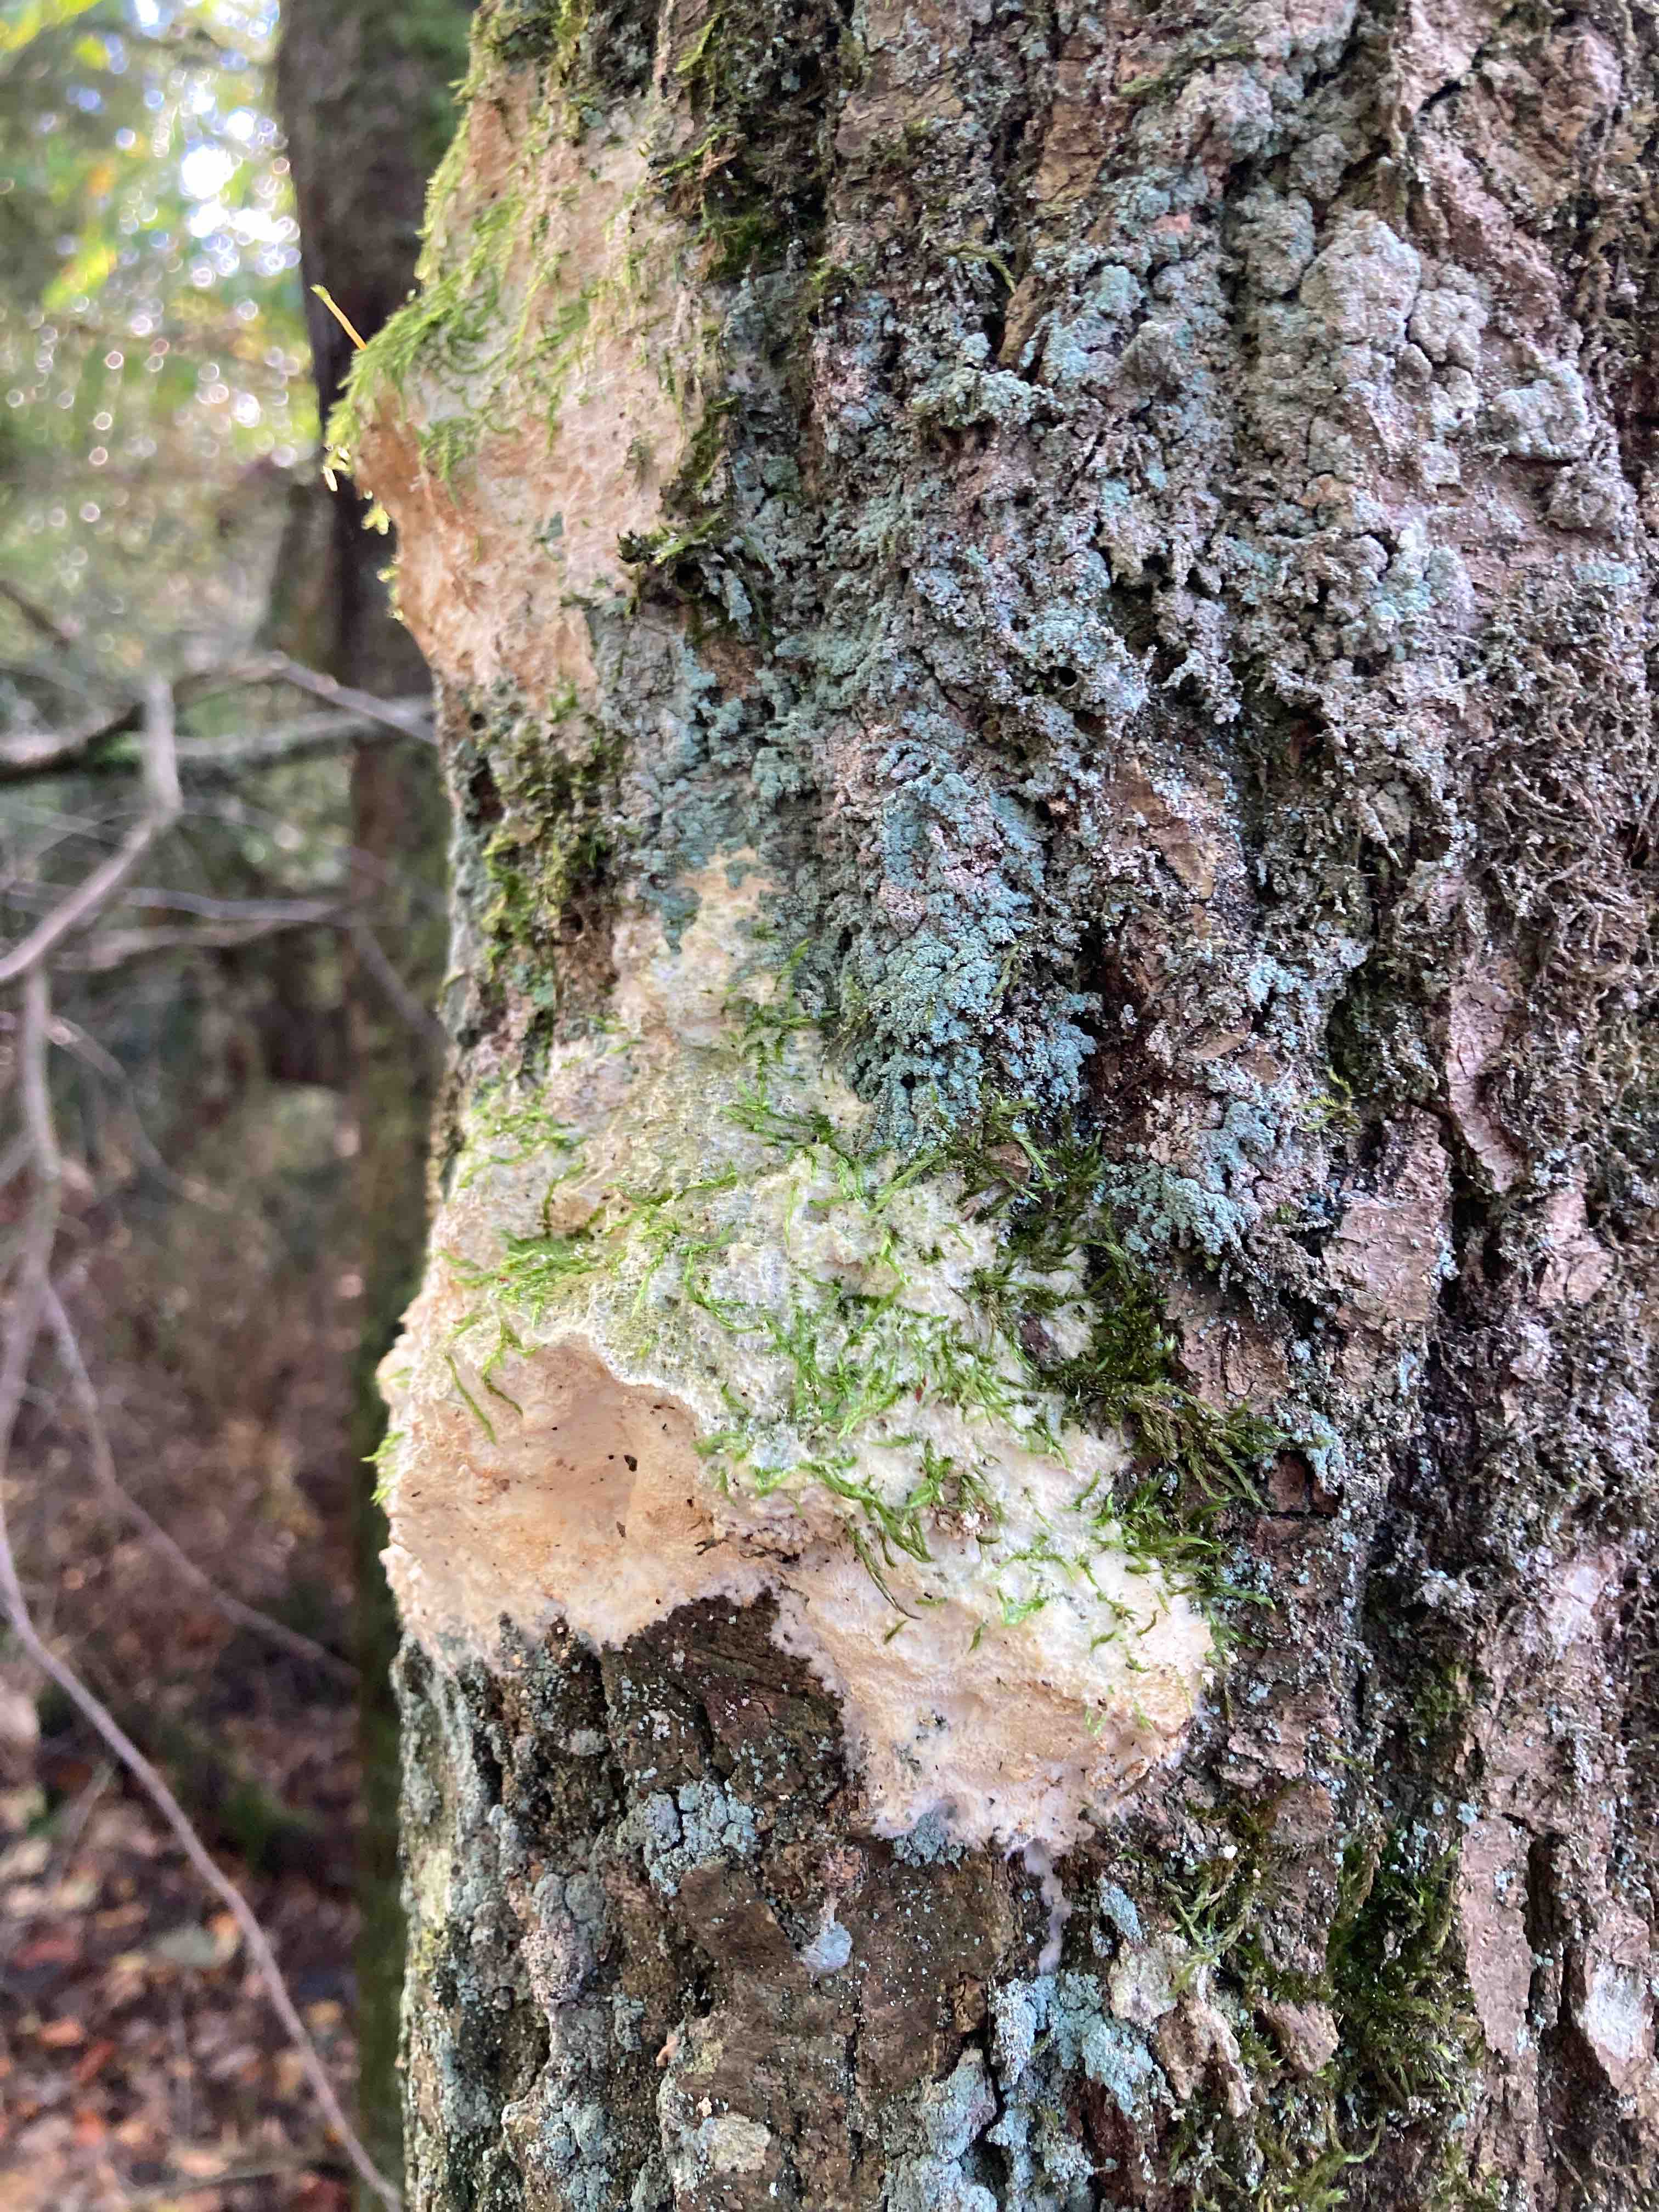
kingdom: Fungi
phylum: Basidiomycota
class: Agaricomycetes
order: Hymenochaetales
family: Oxyporaceae
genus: Oxyporus
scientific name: Oxyporus populinus
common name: sammenvokset trylleporesvamp
